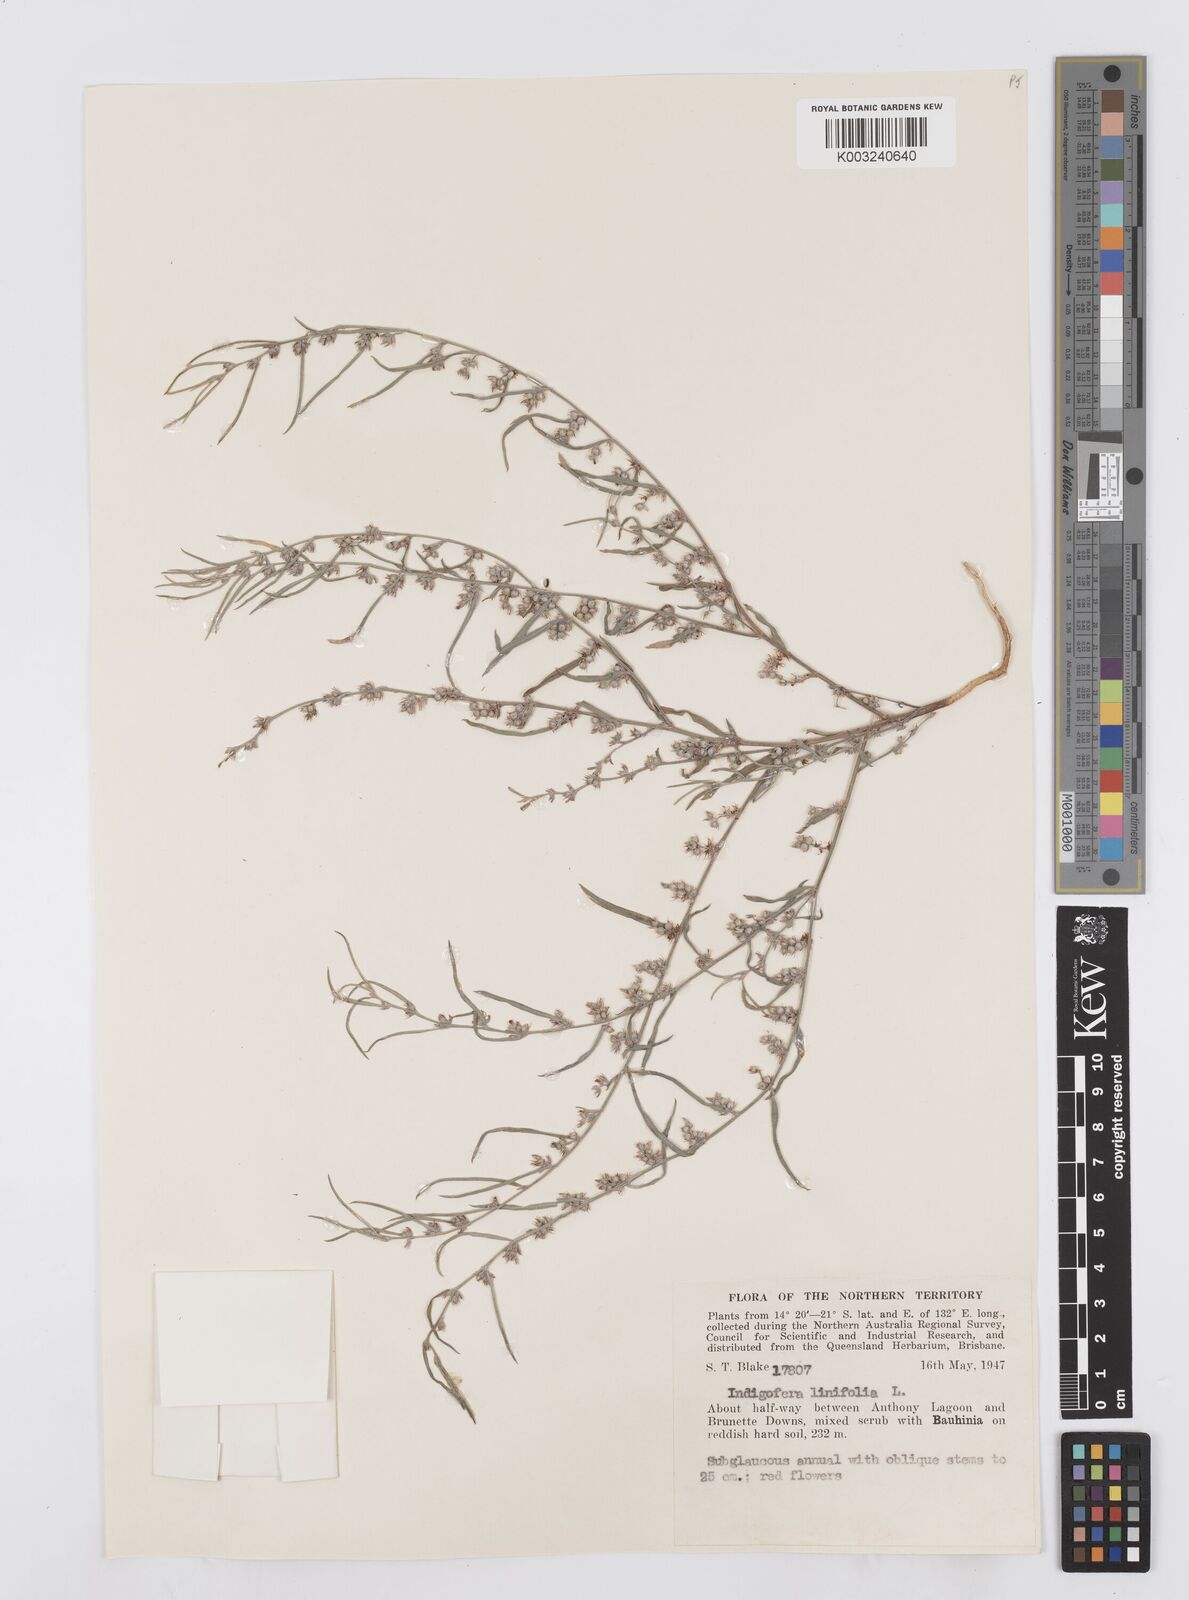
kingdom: Plantae
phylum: Tracheophyta
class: Magnoliopsida
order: Fabales
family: Fabaceae
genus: Indigofera
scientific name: Indigofera linifolia
